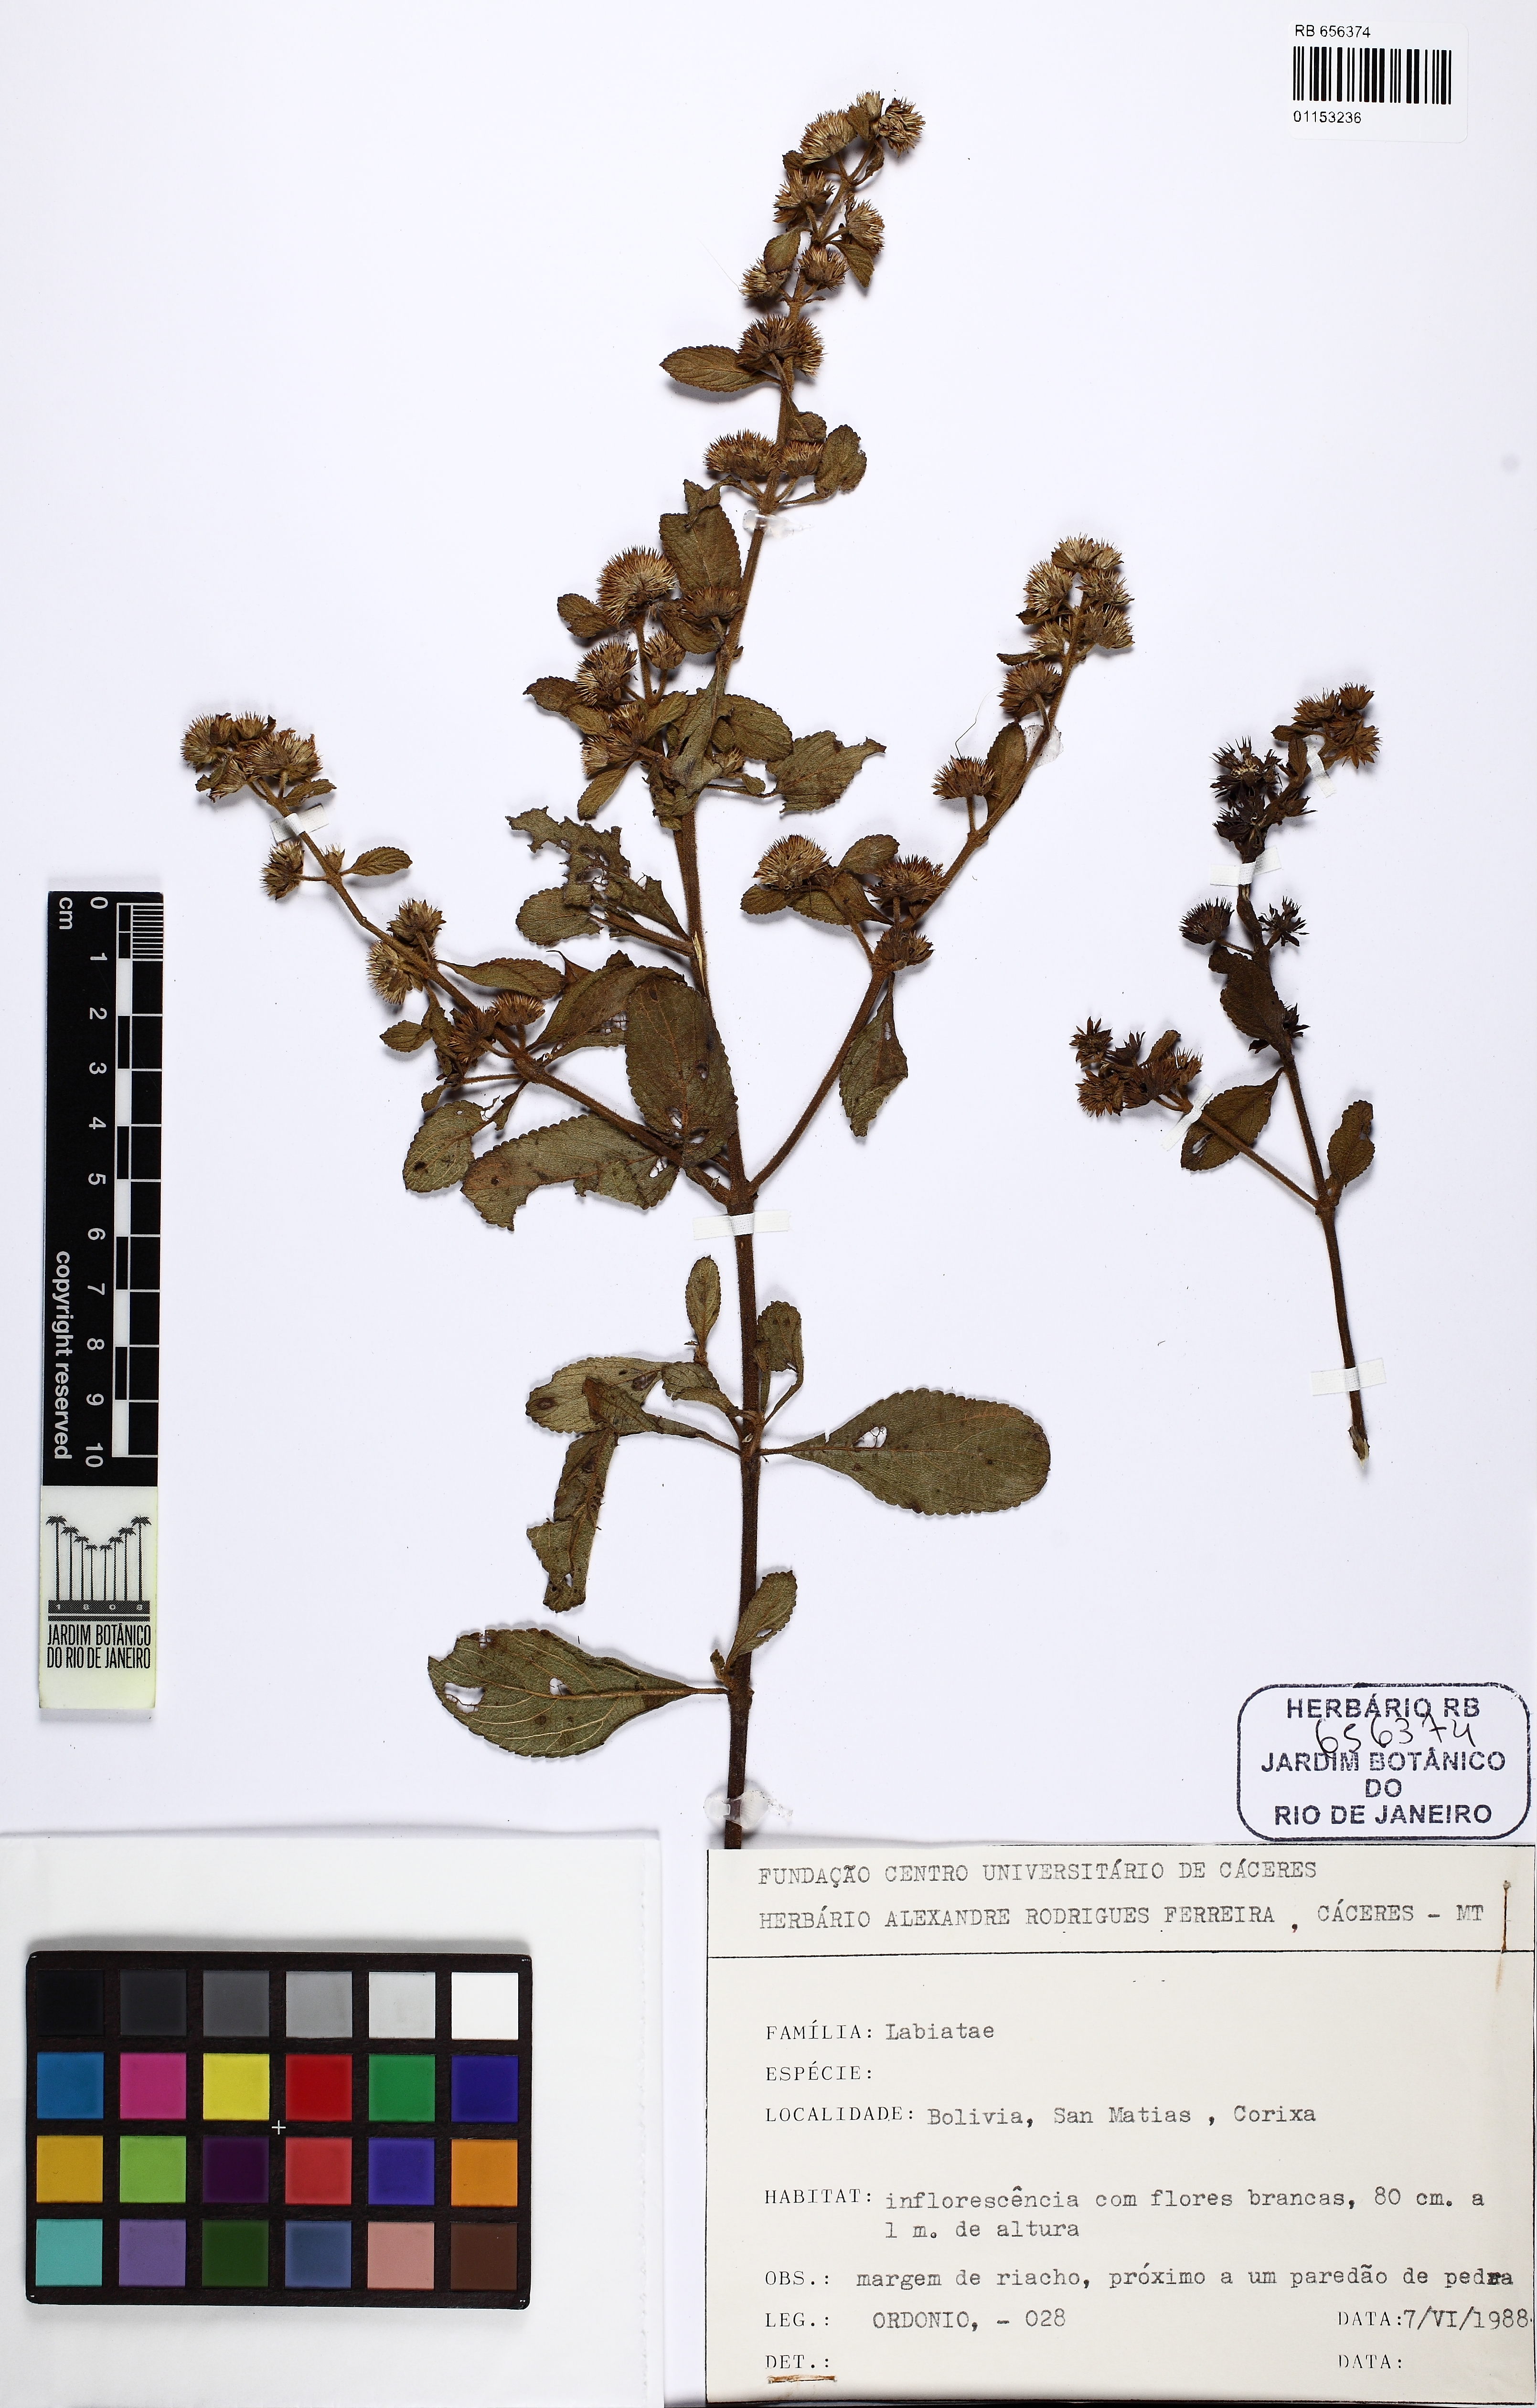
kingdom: Plantae
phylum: Tracheophyta
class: Magnoliopsida
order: Lamiales
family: Lamiaceae
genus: Hyptis
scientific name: Hyptis
